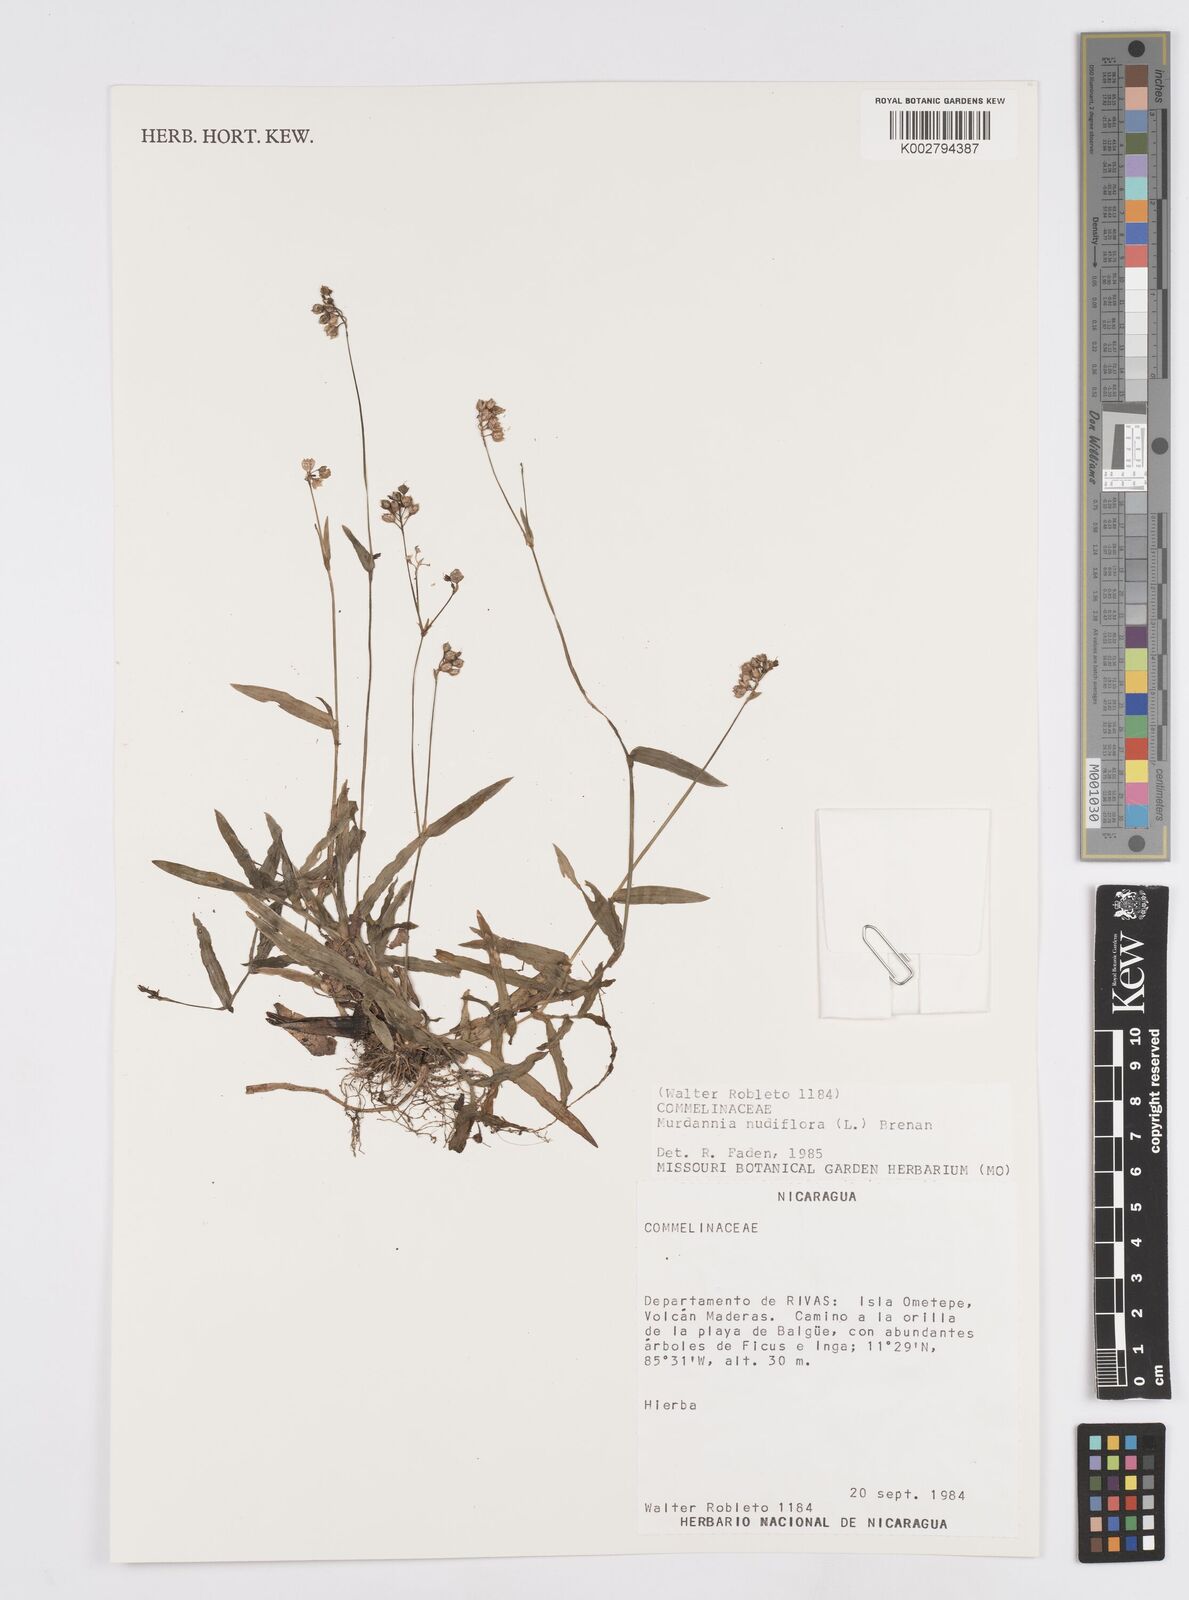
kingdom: Plantae
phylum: Tracheophyta
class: Liliopsida
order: Commelinales
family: Commelinaceae
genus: Murdannia
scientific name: Murdannia nudiflora
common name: Nakedstem dewflower
